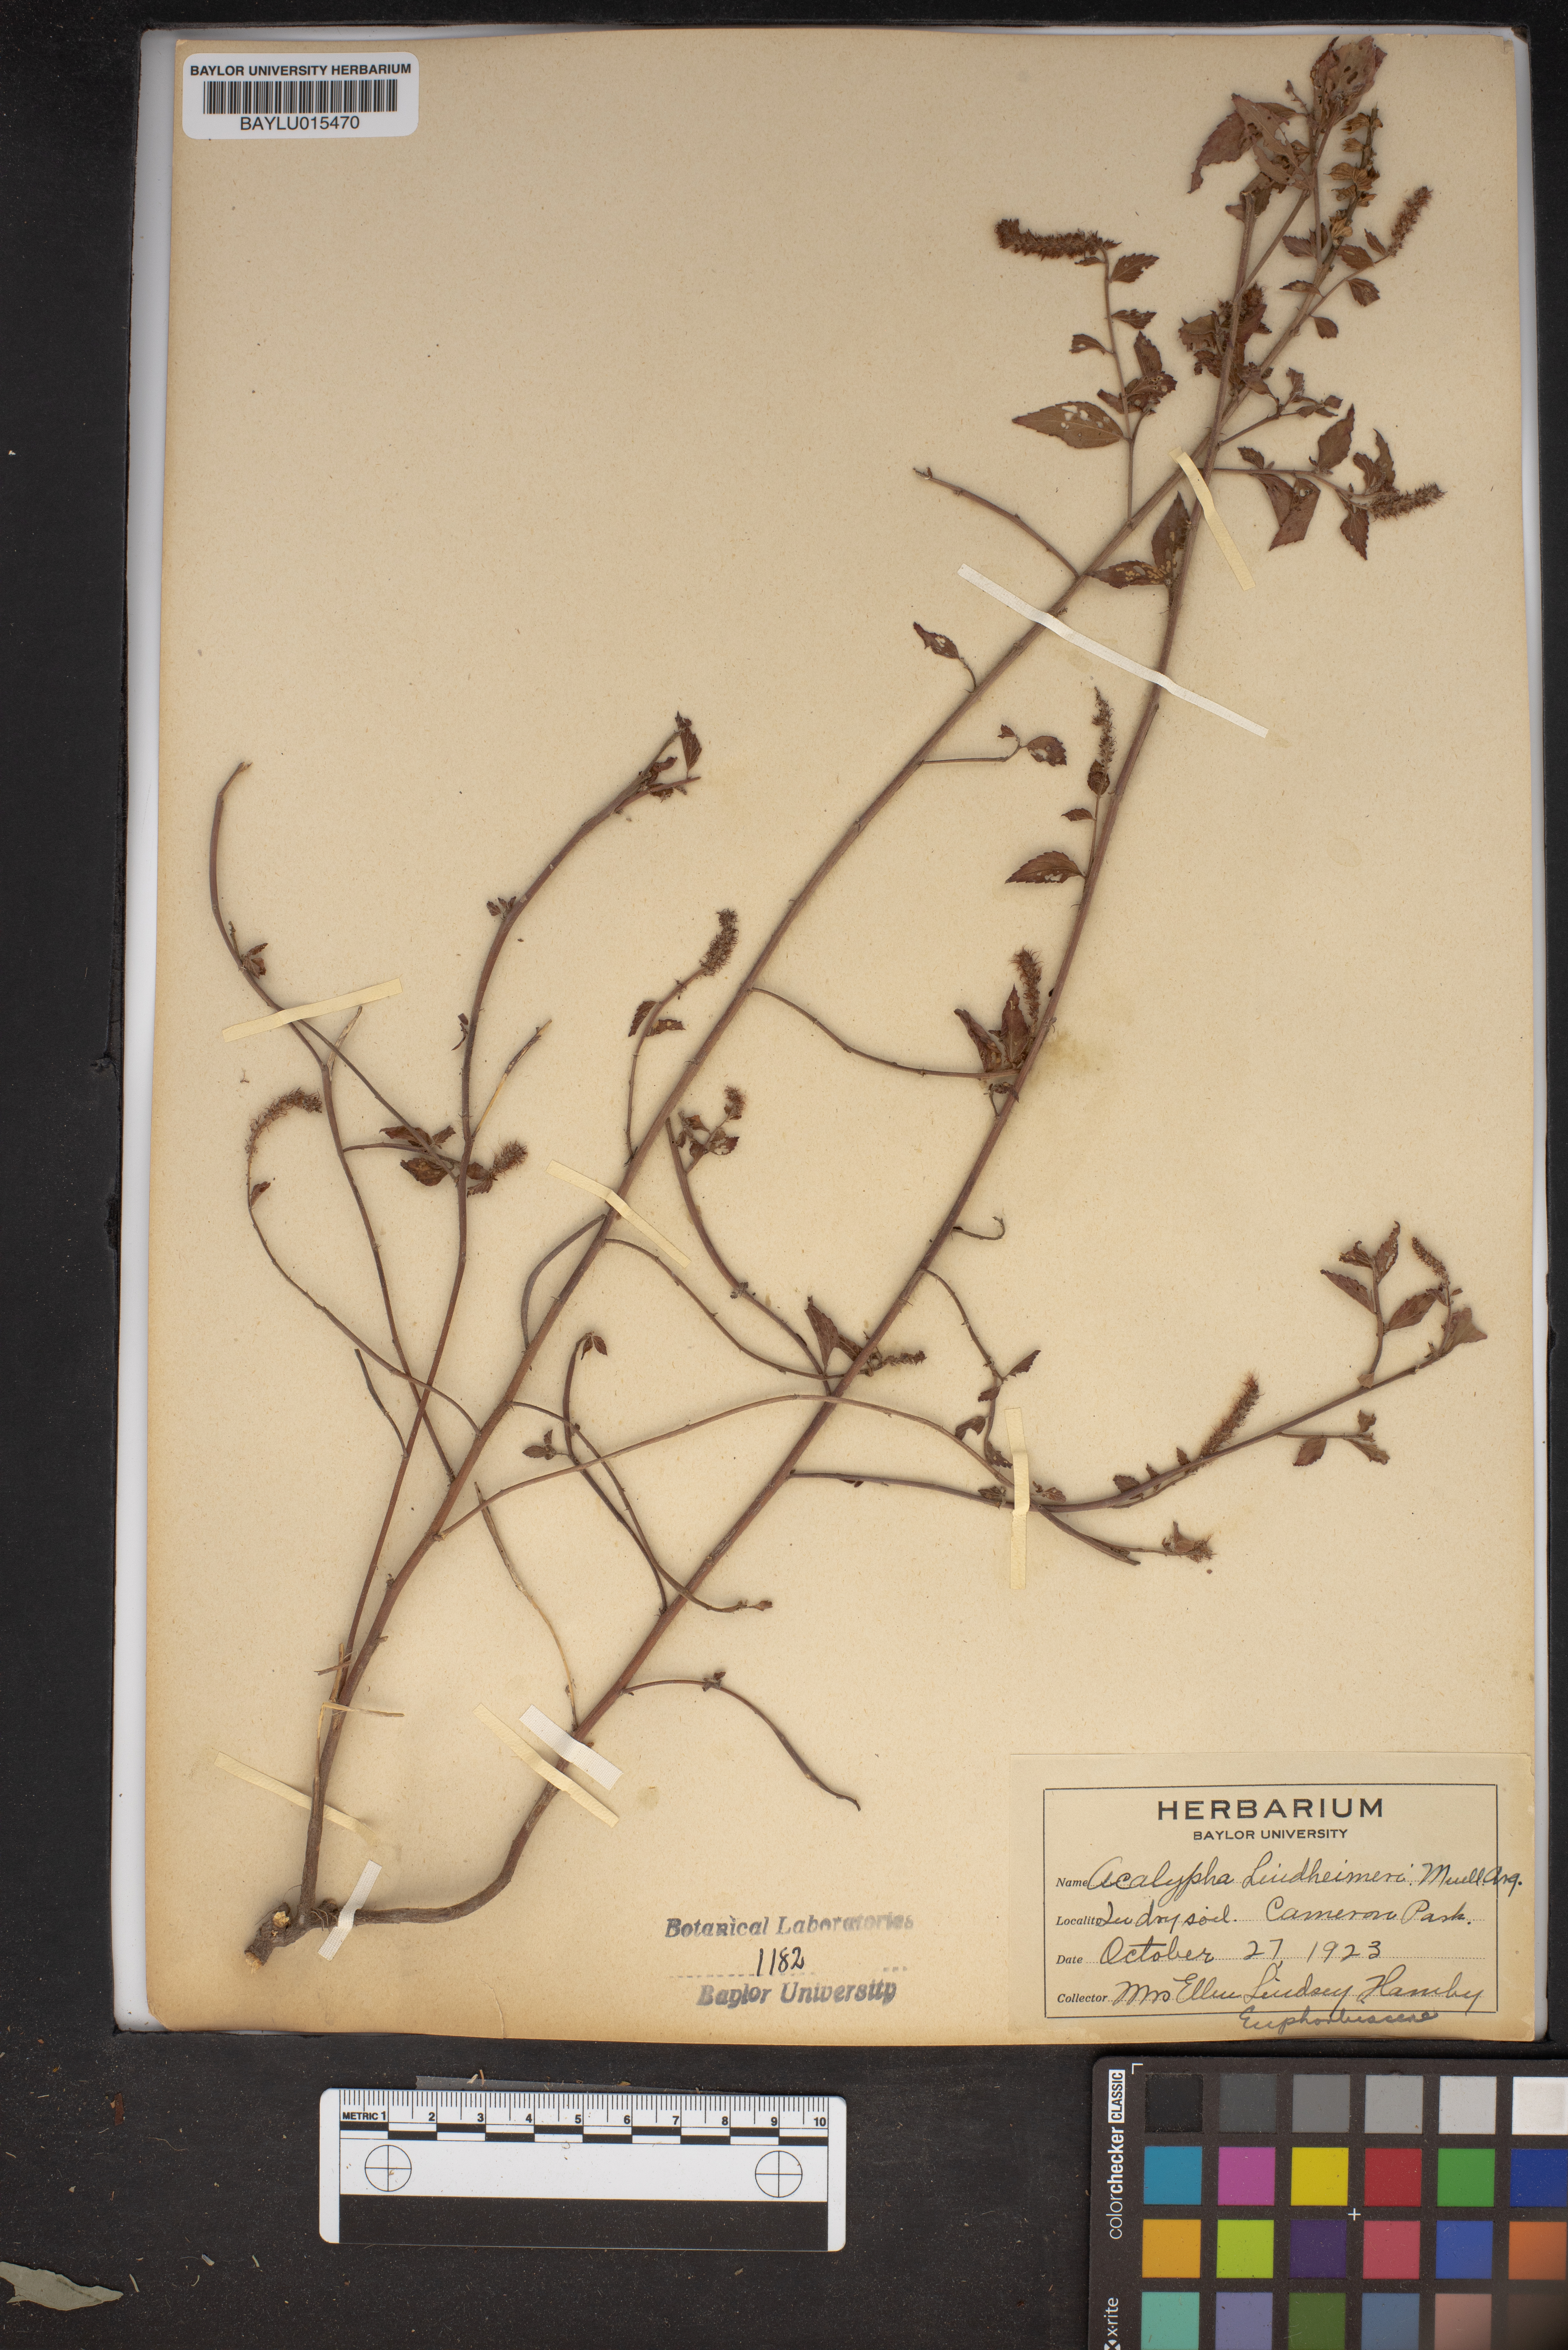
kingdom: Plantae
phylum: Tracheophyta
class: Magnoliopsida
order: Malpighiales
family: Euphorbiaceae
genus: Acalypha
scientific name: Acalypha phleoides
